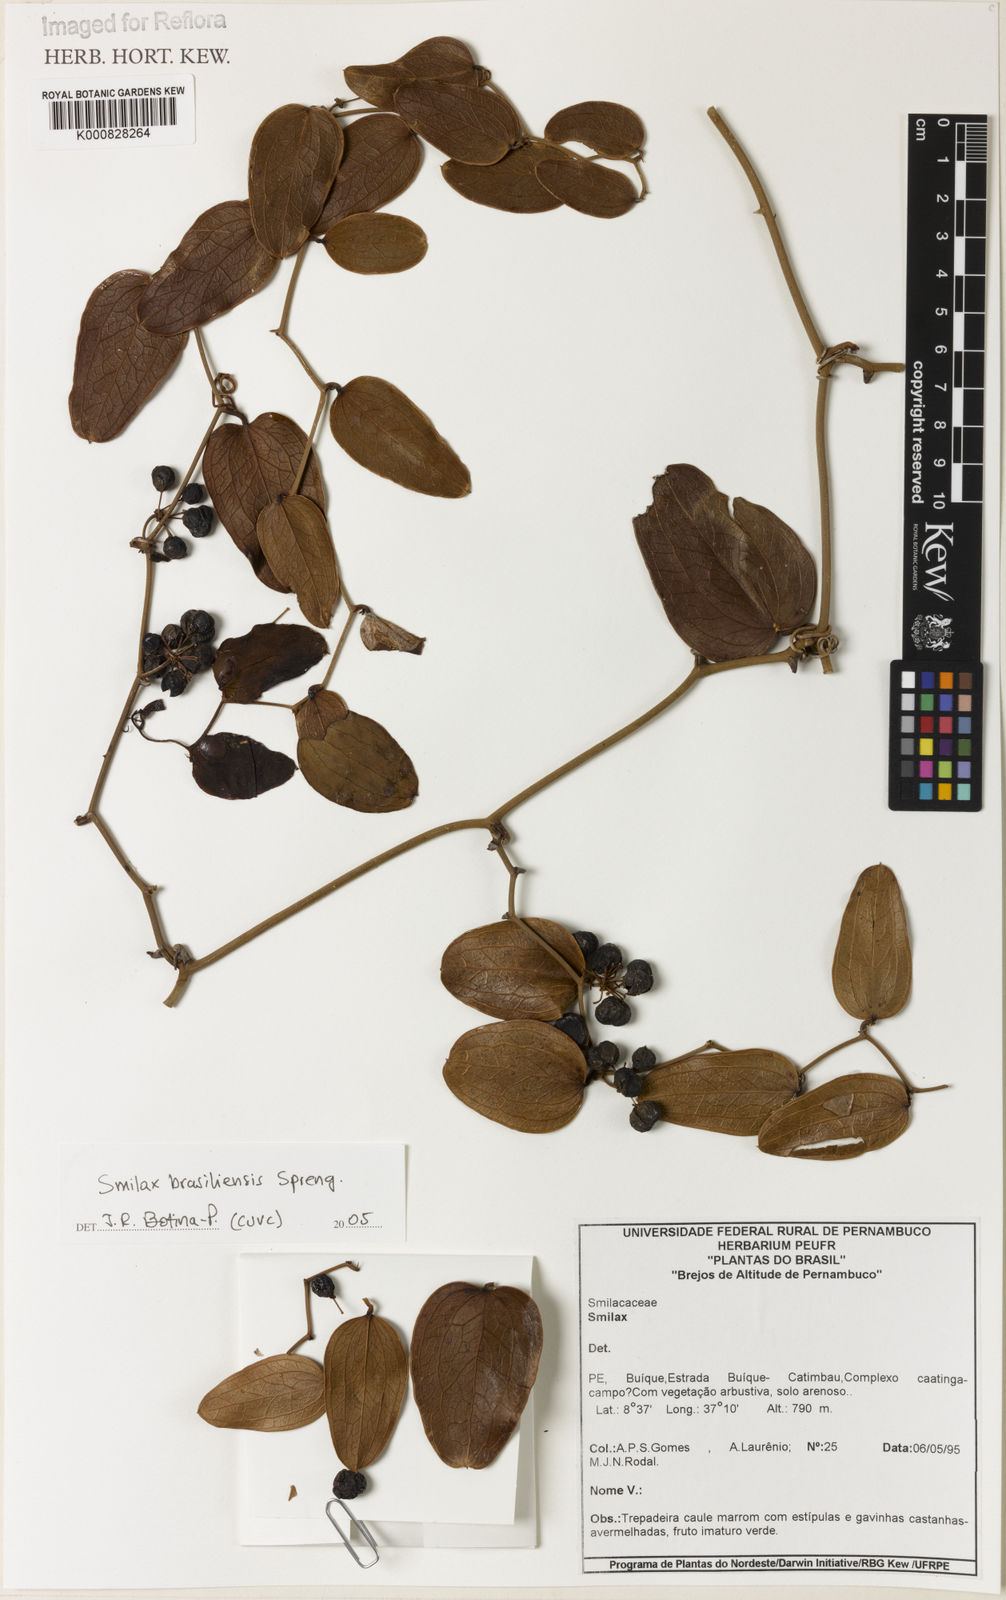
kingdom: Plantae
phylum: Tracheophyta
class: Liliopsida
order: Liliales
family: Smilacaceae
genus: Smilax
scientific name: Smilax brasiliensis
